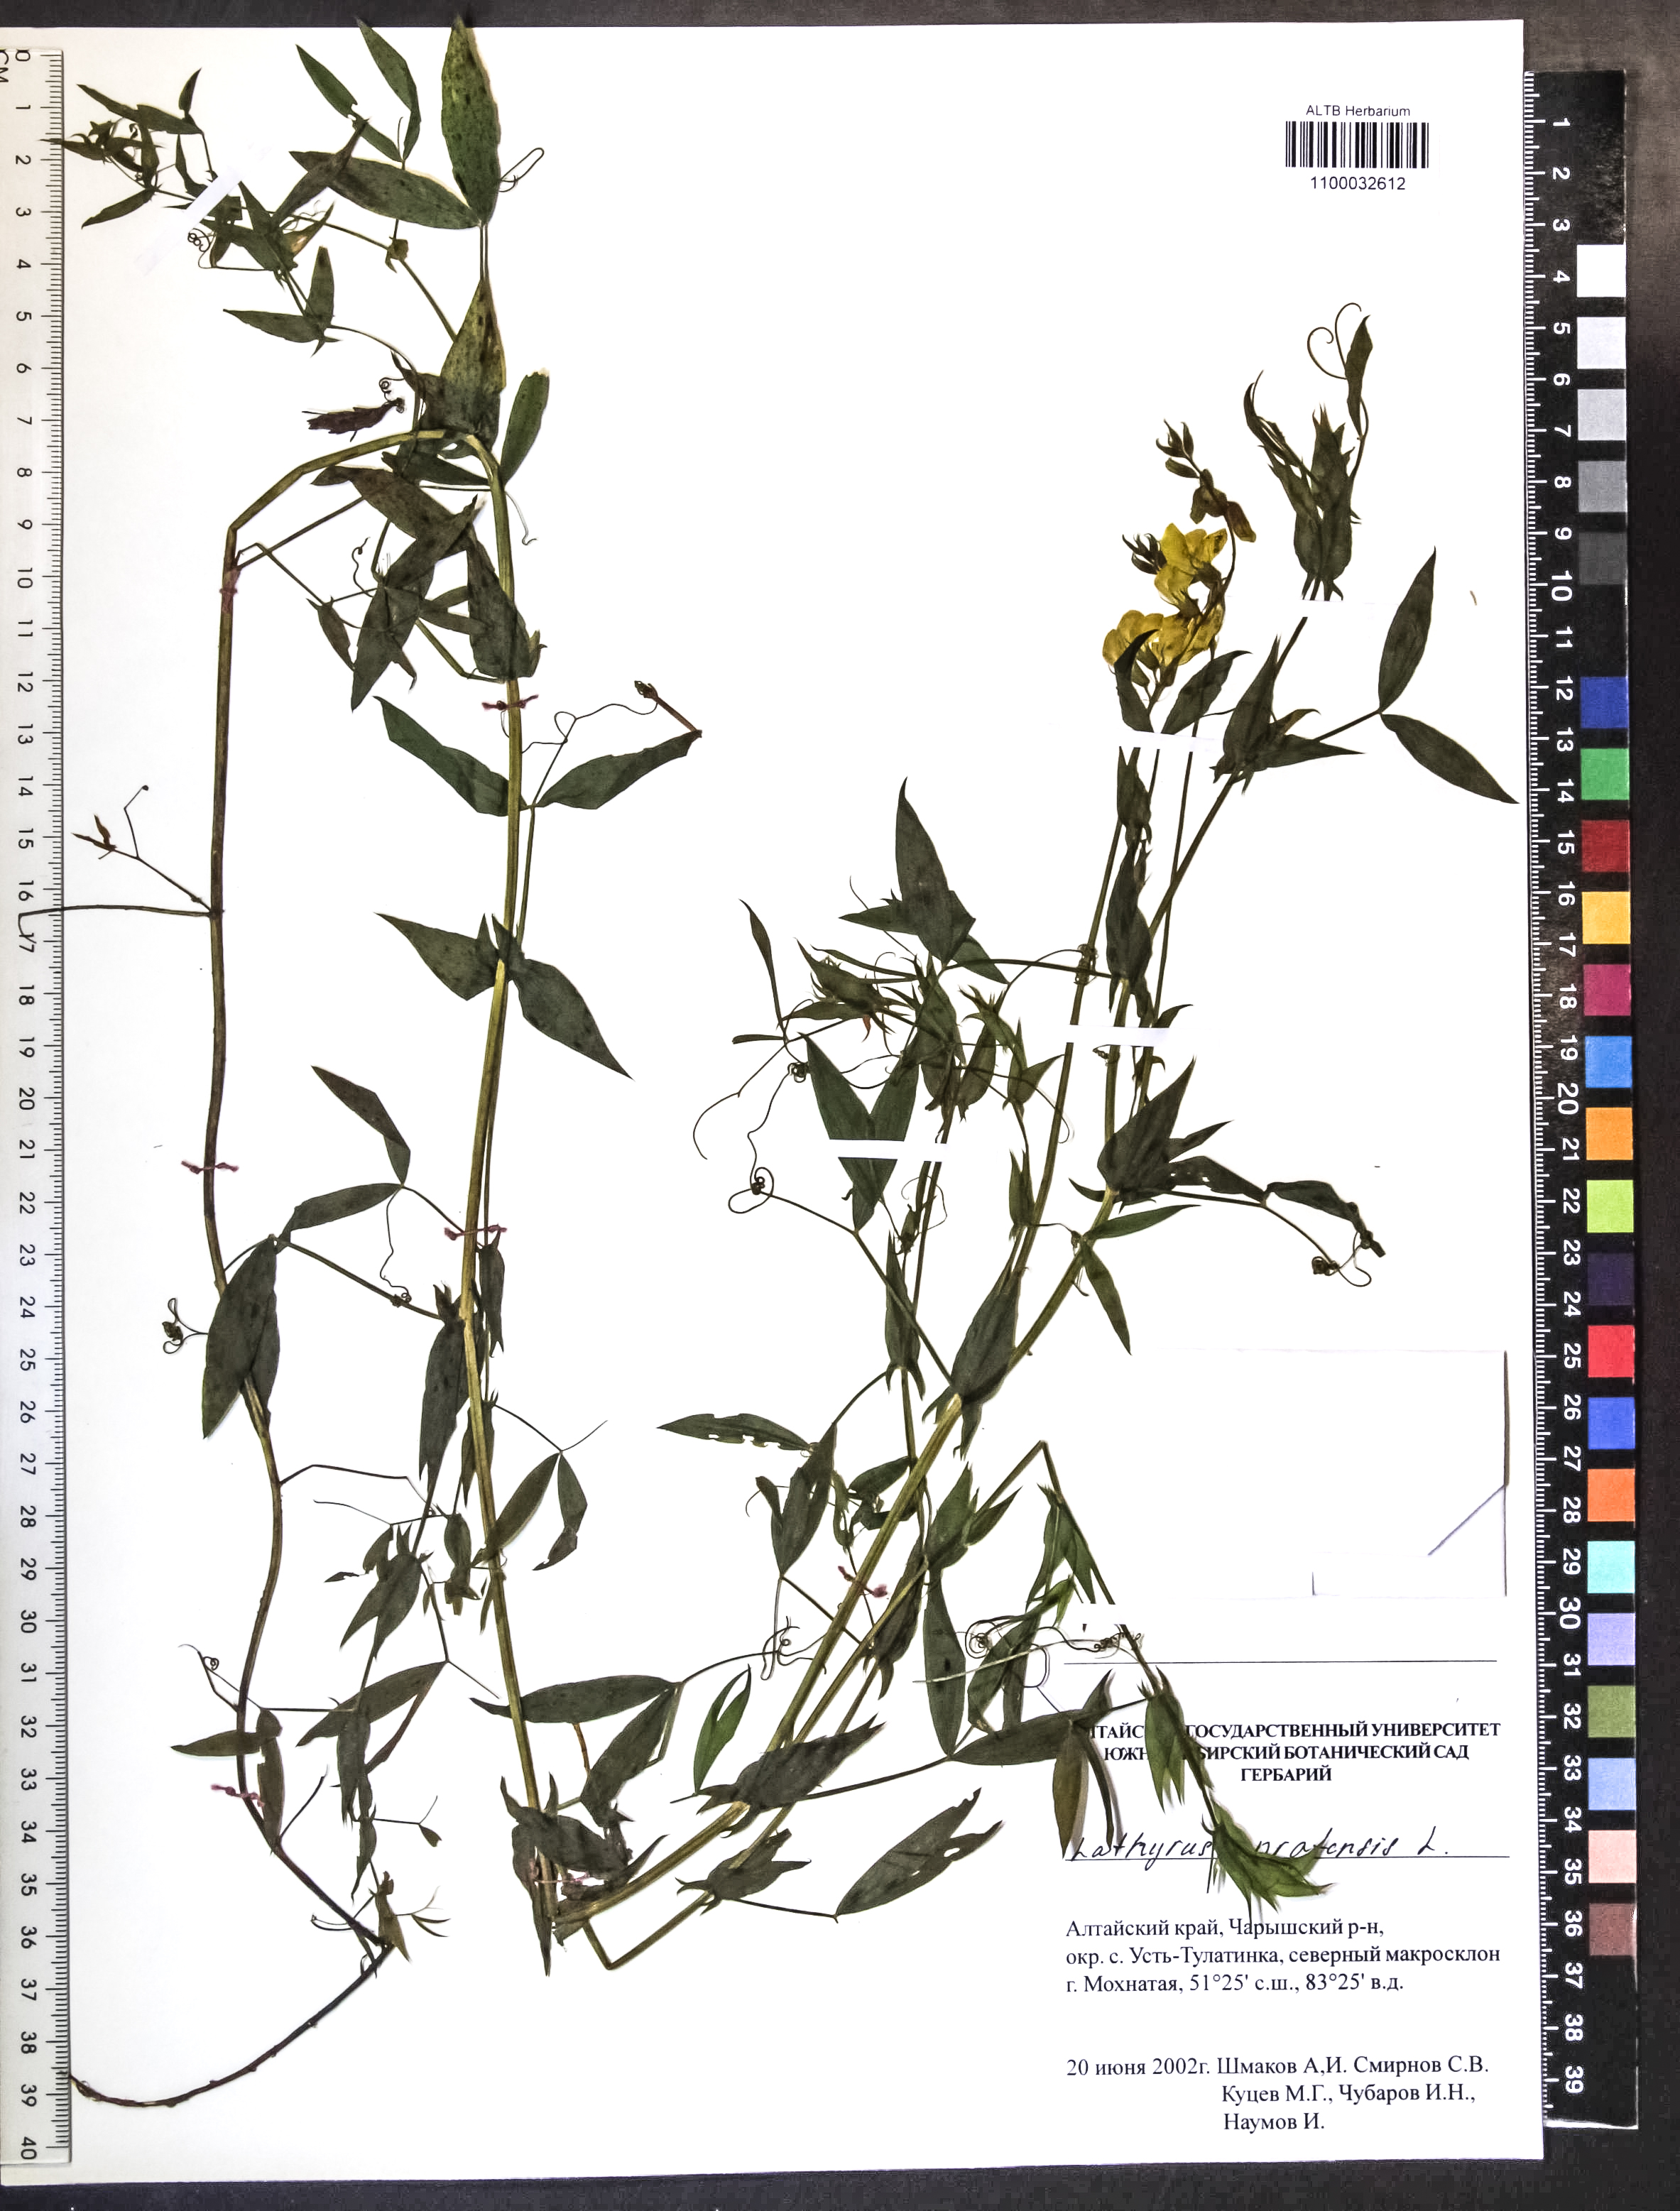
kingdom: Plantae
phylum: Tracheophyta
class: Magnoliopsida
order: Fabales
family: Fabaceae
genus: Lathyrus
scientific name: Lathyrus pratensis
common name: Meadow vetchling
